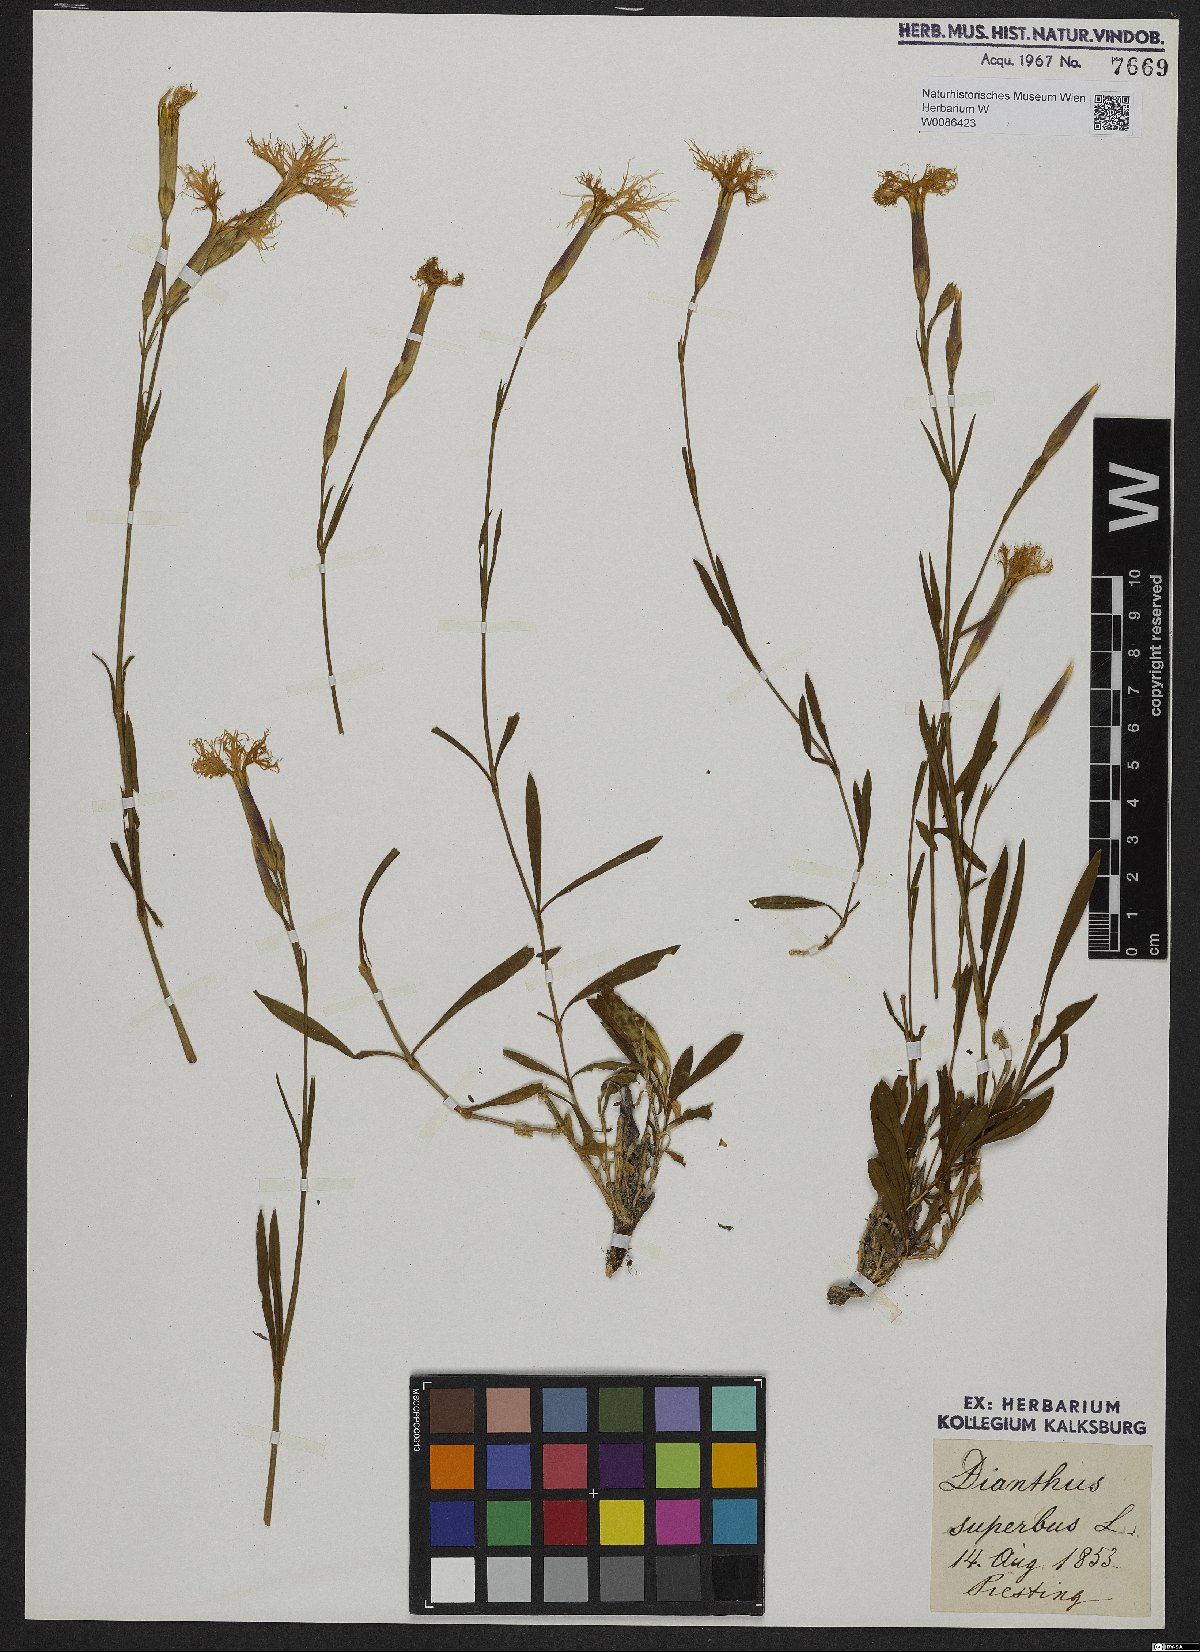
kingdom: Plantae
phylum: Tracheophyta
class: Magnoliopsida
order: Caryophyllales
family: Caryophyllaceae
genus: Dianthus
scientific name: Dianthus superbus
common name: Fringed pink
